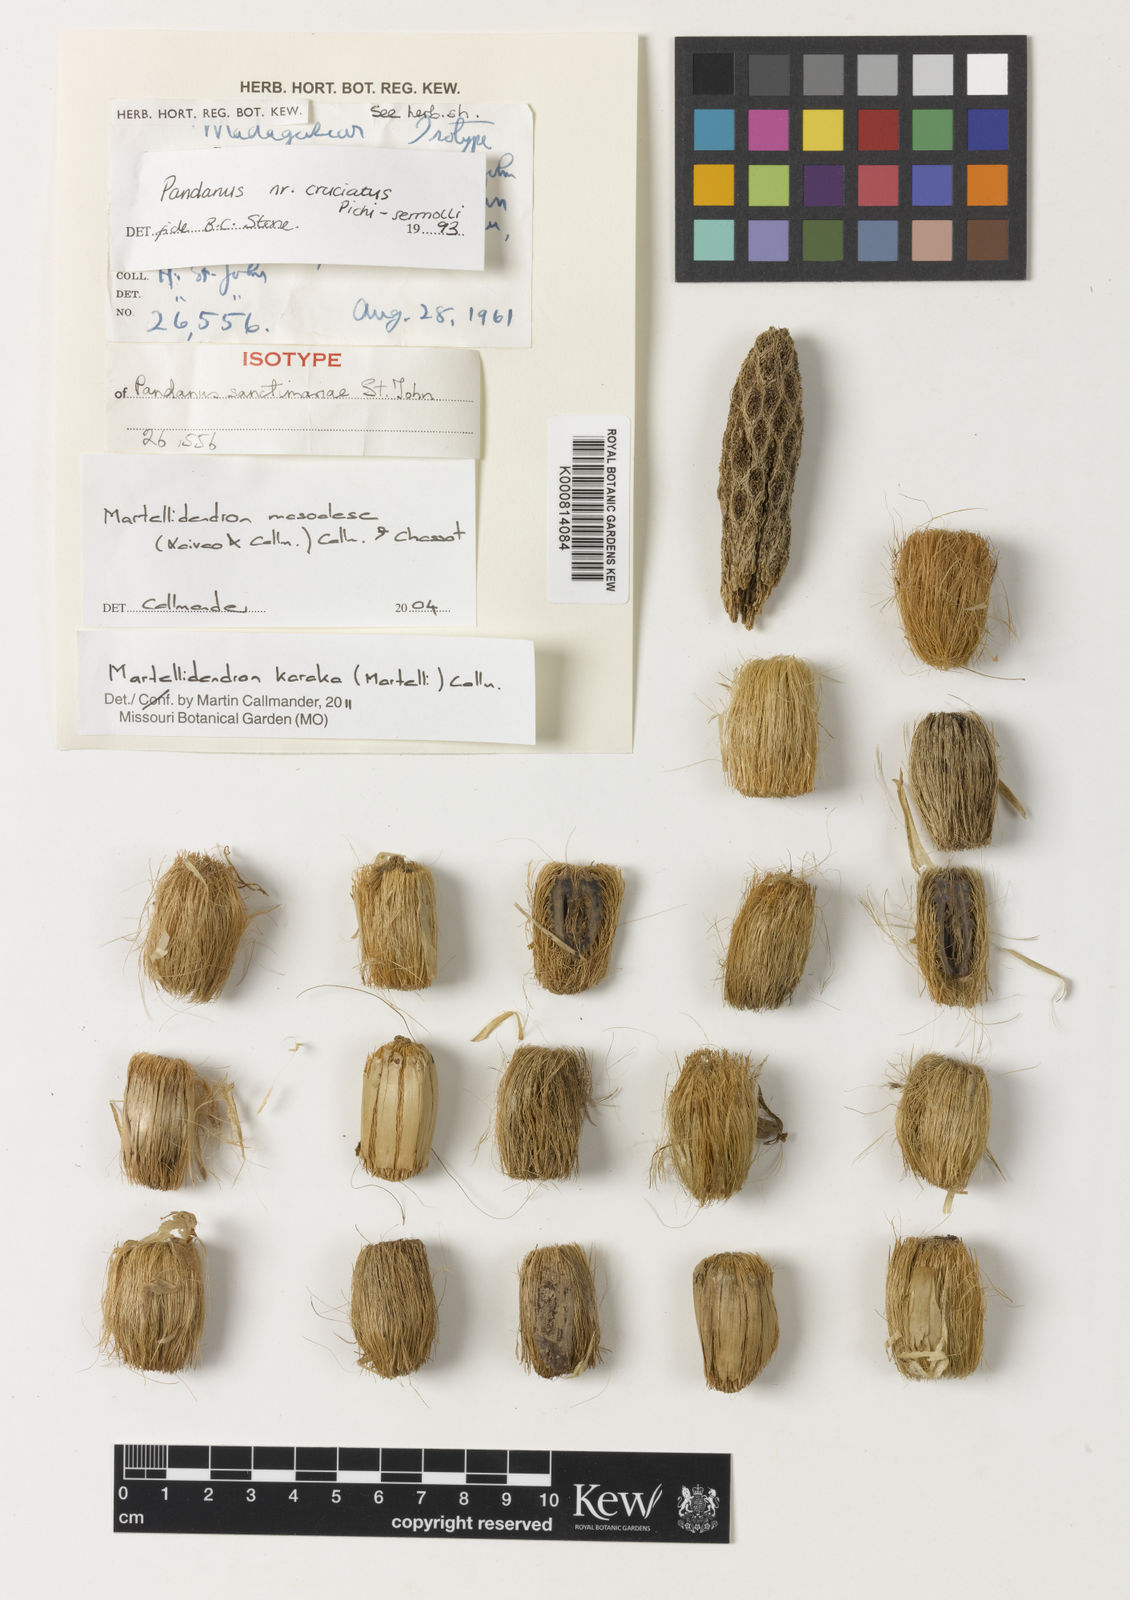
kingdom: Plantae
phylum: Tracheophyta
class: Liliopsida
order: Pandanales
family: Pandanaceae
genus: Martellidendron
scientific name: Martellidendron karaka
